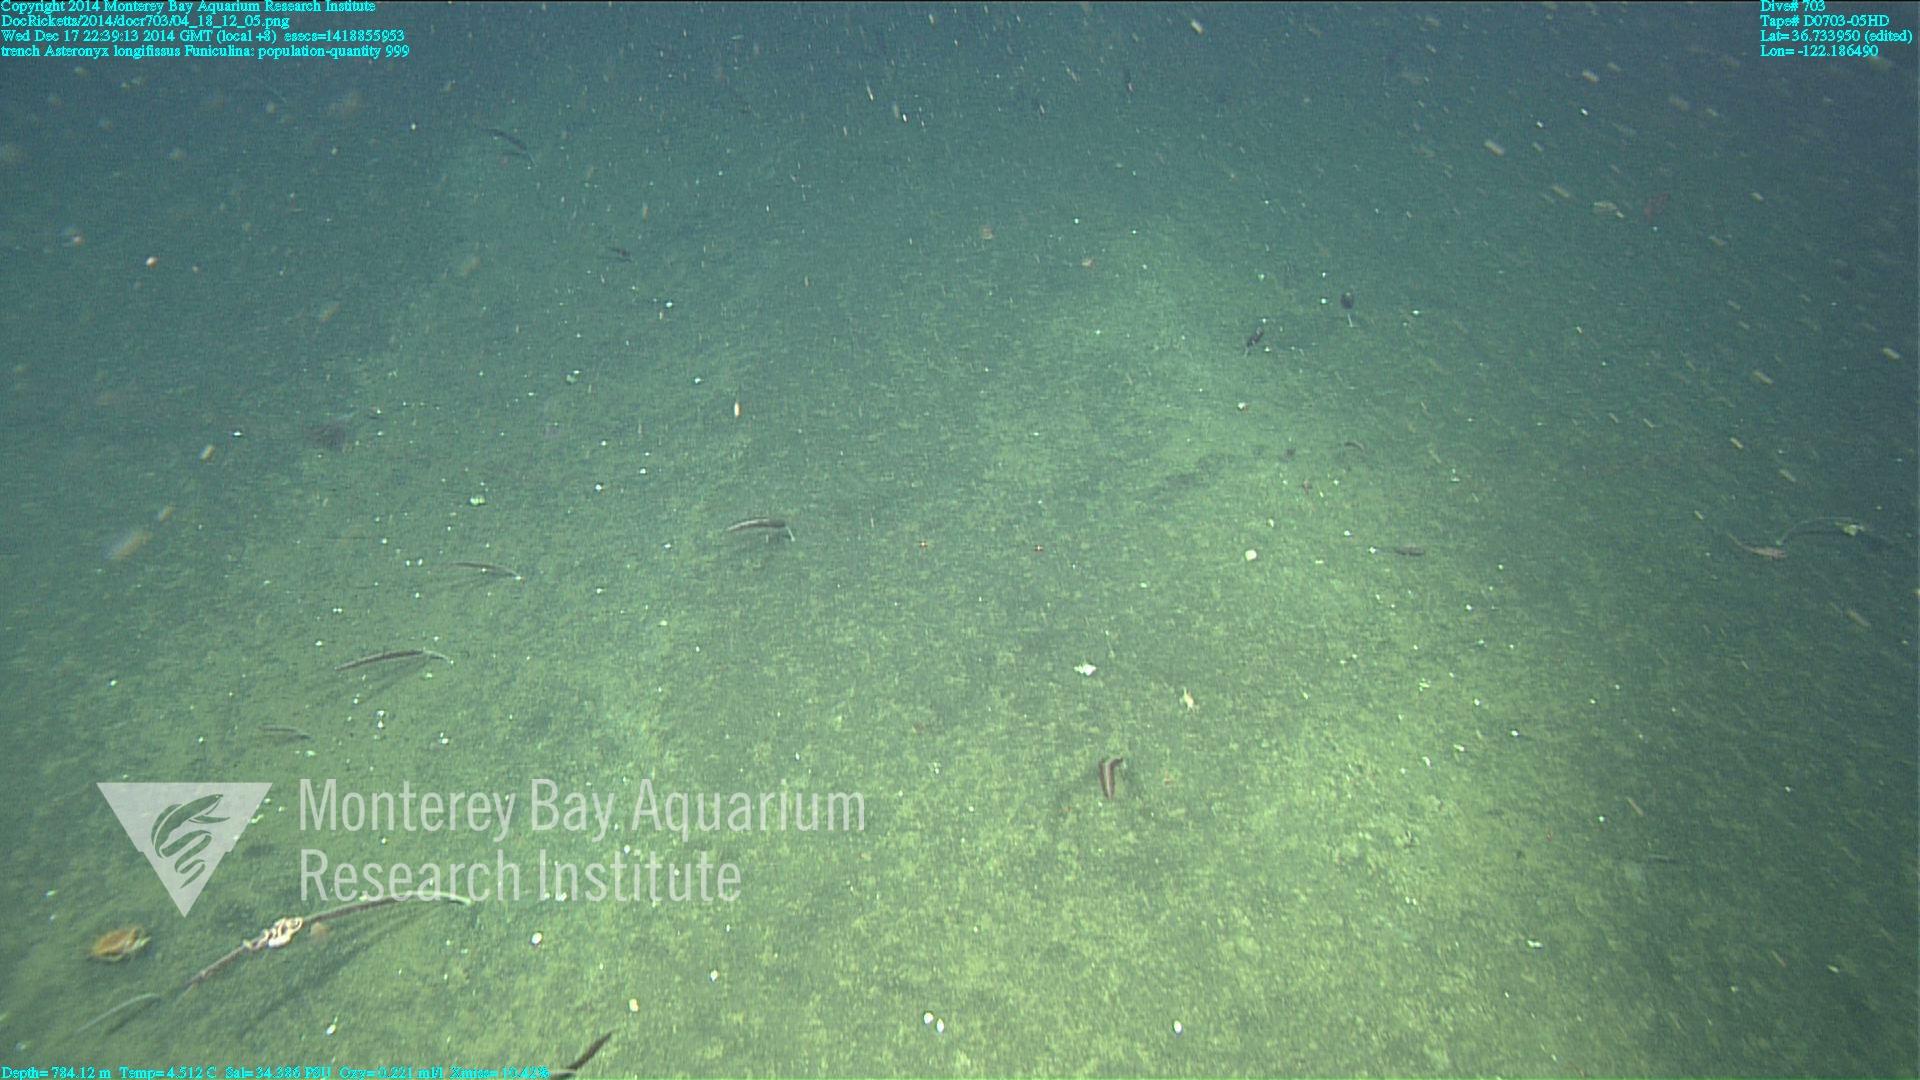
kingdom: Animalia
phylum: Cnidaria
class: Anthozoa
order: Scleralcyonacea
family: Funiculinidae
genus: Funiculina
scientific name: Funiculina
